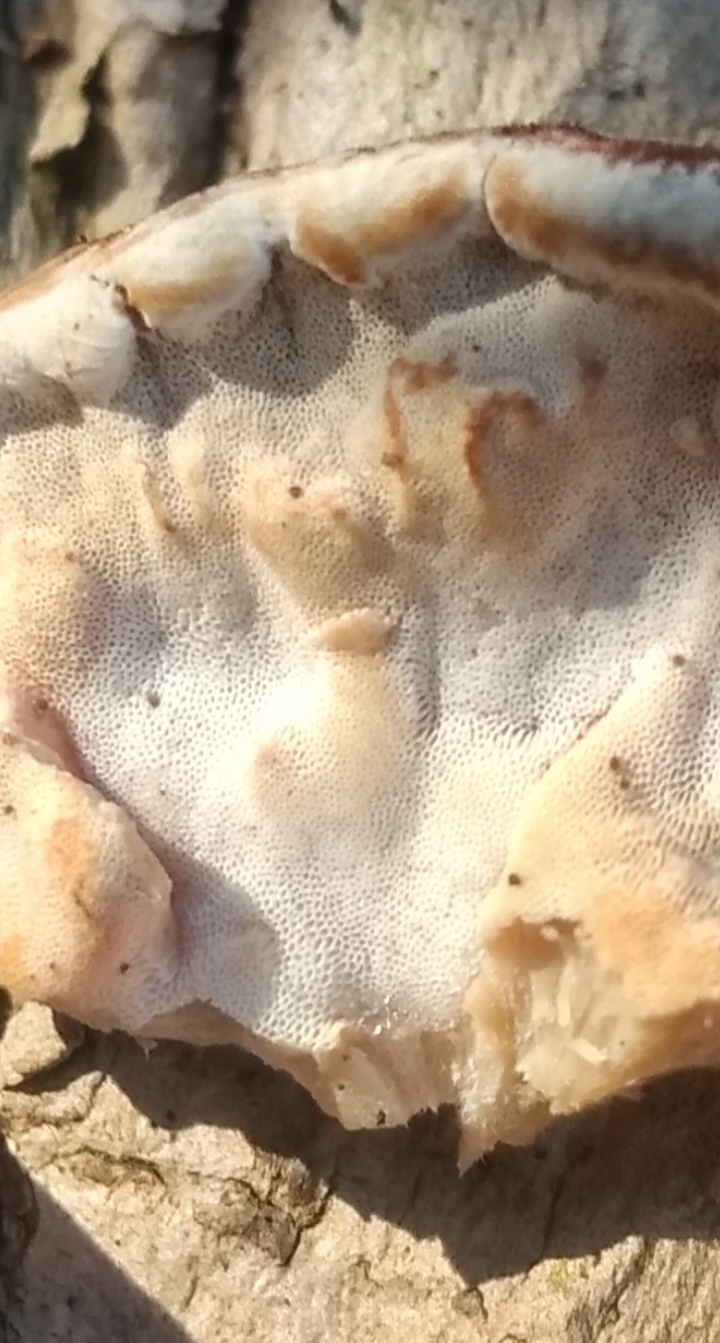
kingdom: Fungi
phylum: Basidiomycota
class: Agaricomycetes
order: Polyporales
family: Phanerochaetaceae
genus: Bjerkandera
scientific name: Bjerkandera fumosa
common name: grågul sodporesvamp
